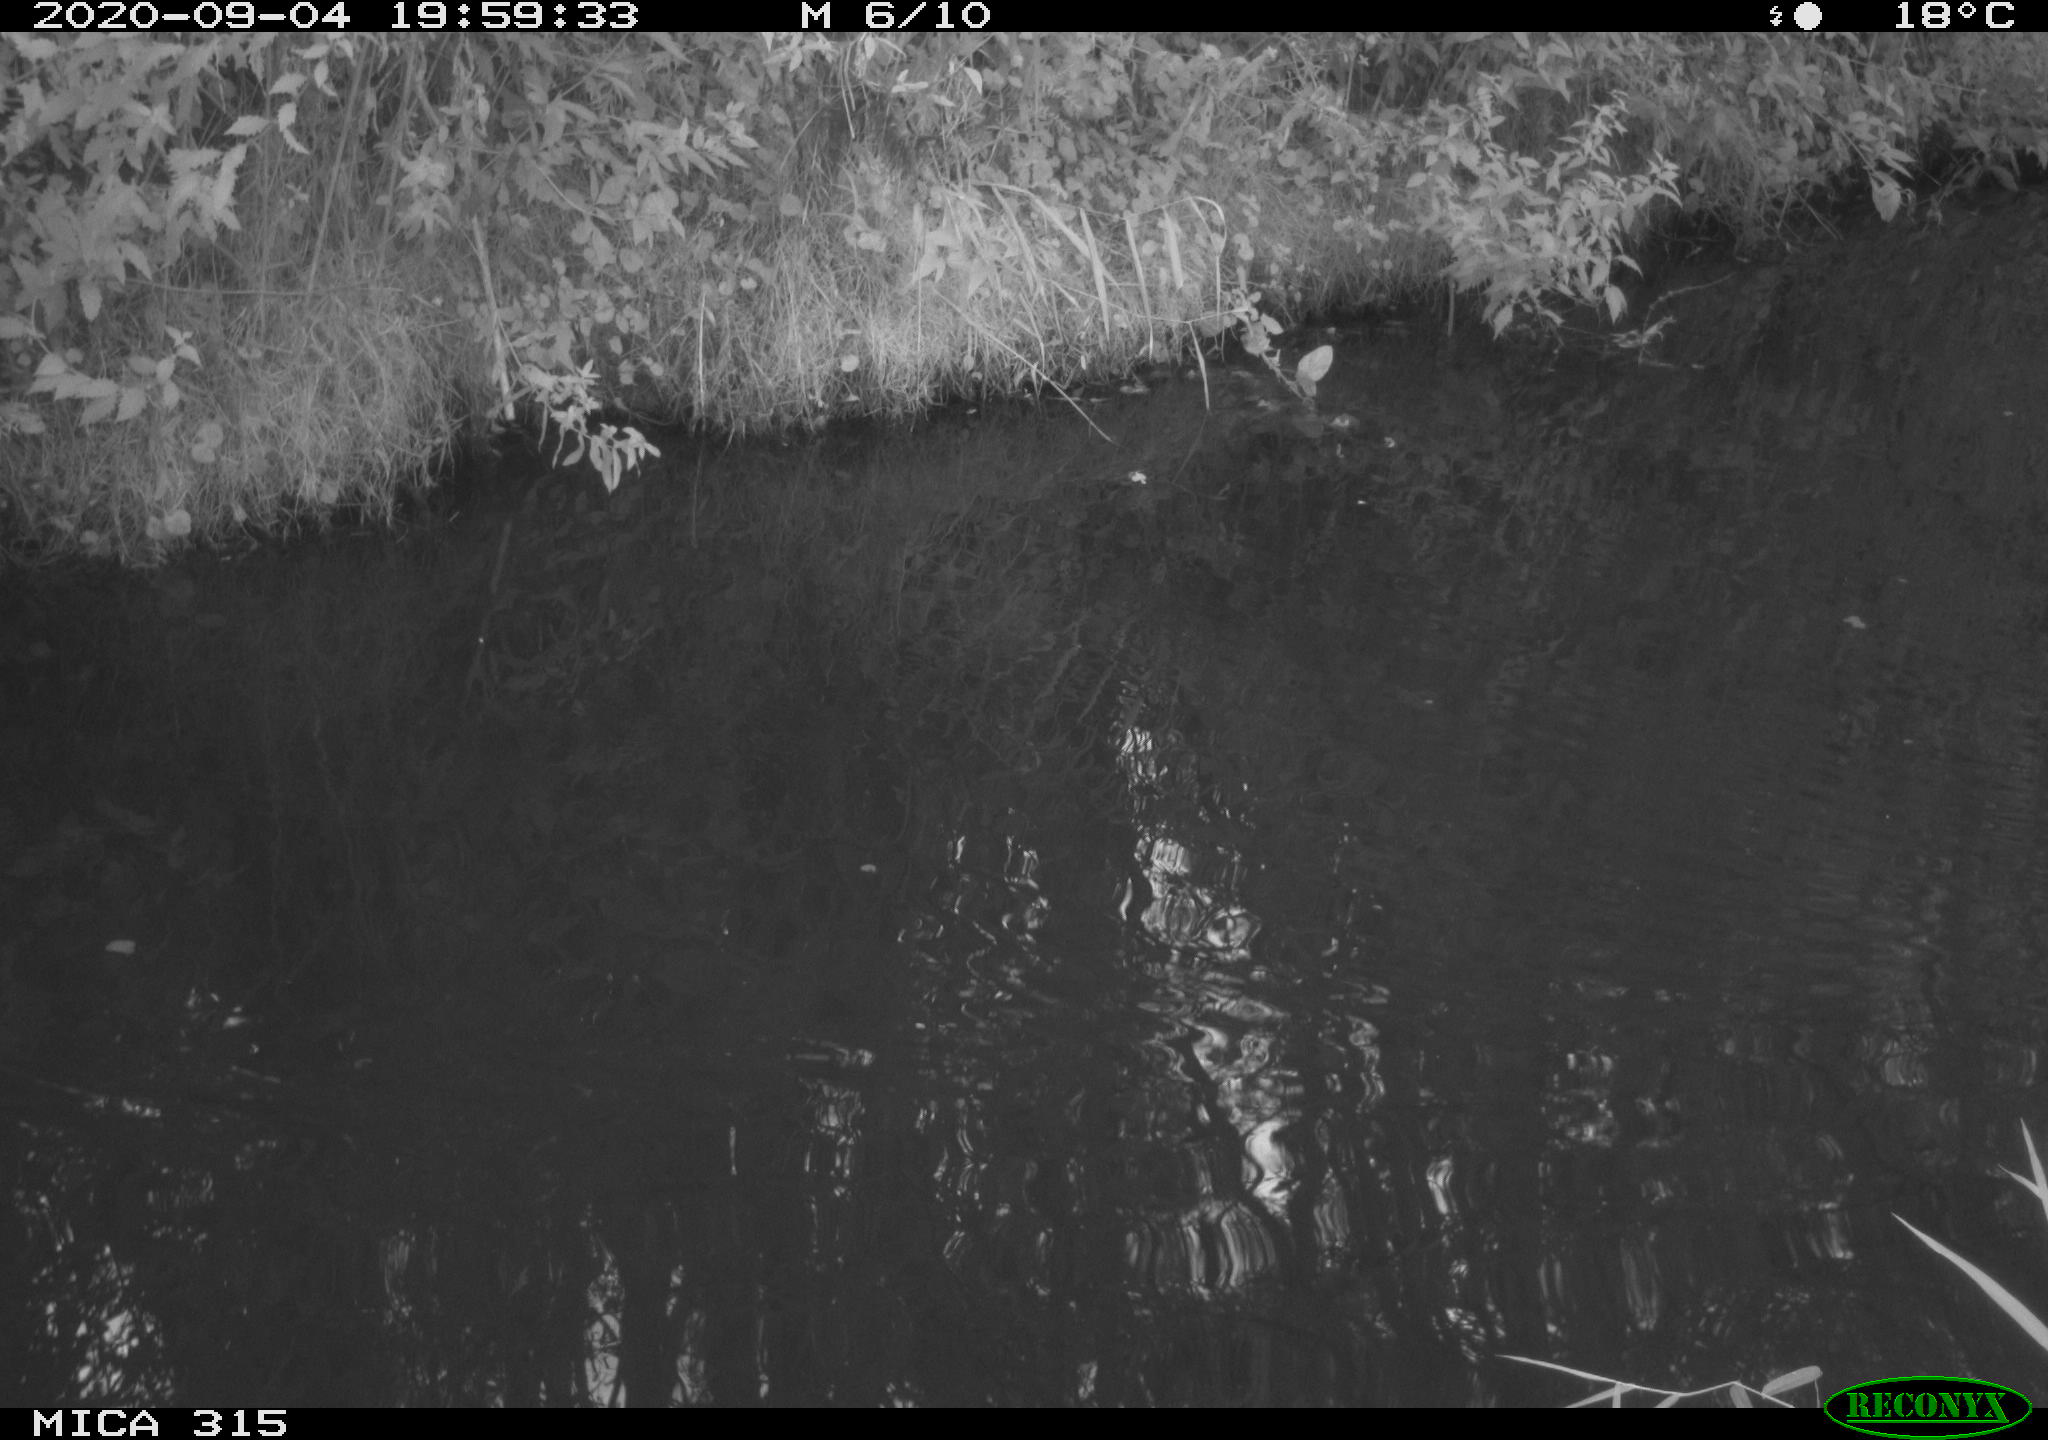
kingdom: Animalia
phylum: Chordata
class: Aves
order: Anseriformes
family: Anatidae
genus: Anas
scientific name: Anas platyrhynchos
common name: Mallard
